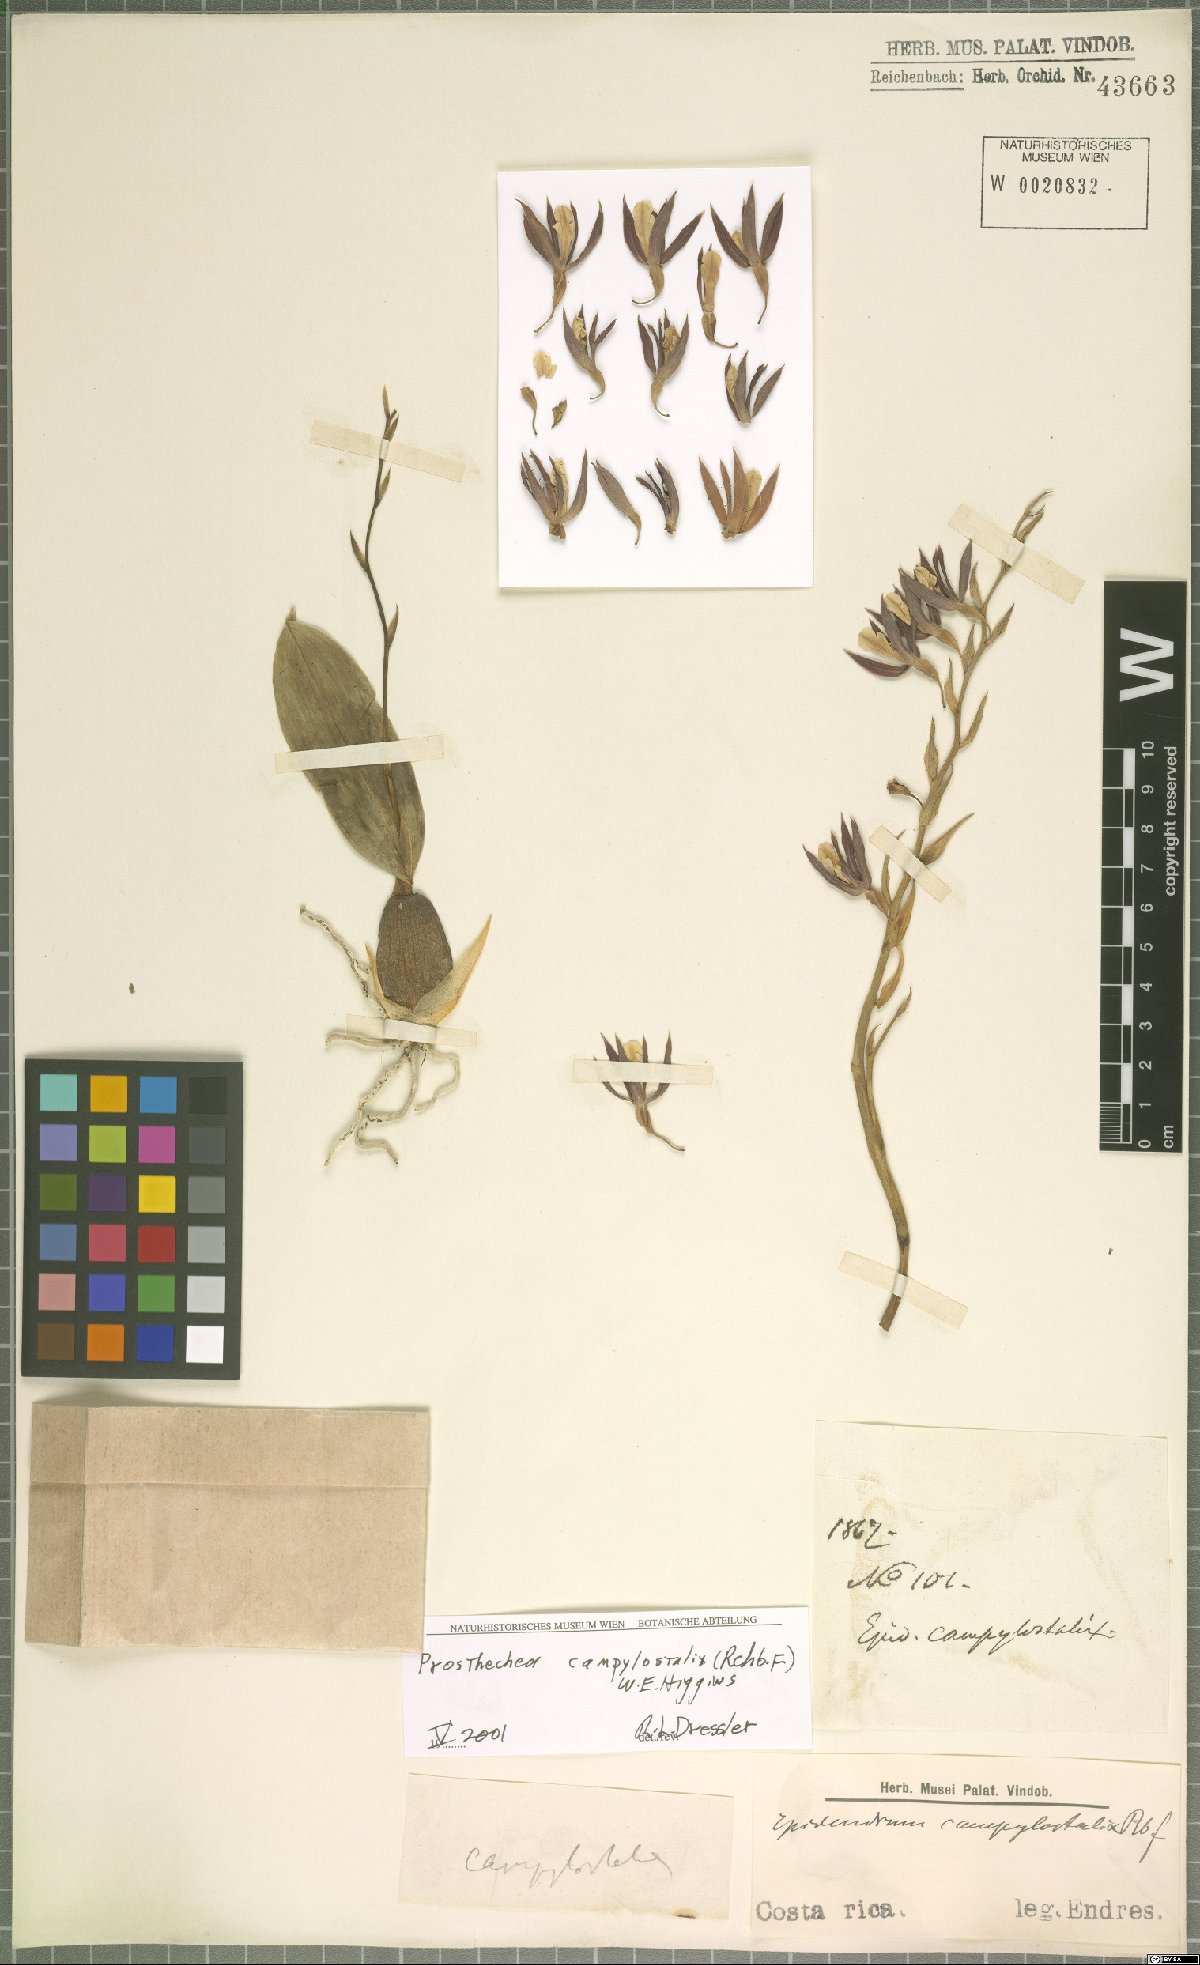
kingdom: Plantae
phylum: Tracheophyta
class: Liliopsida
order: Asparagales
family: Orchidaceae
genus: Prosthechea
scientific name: Prosthechea campylostalix
